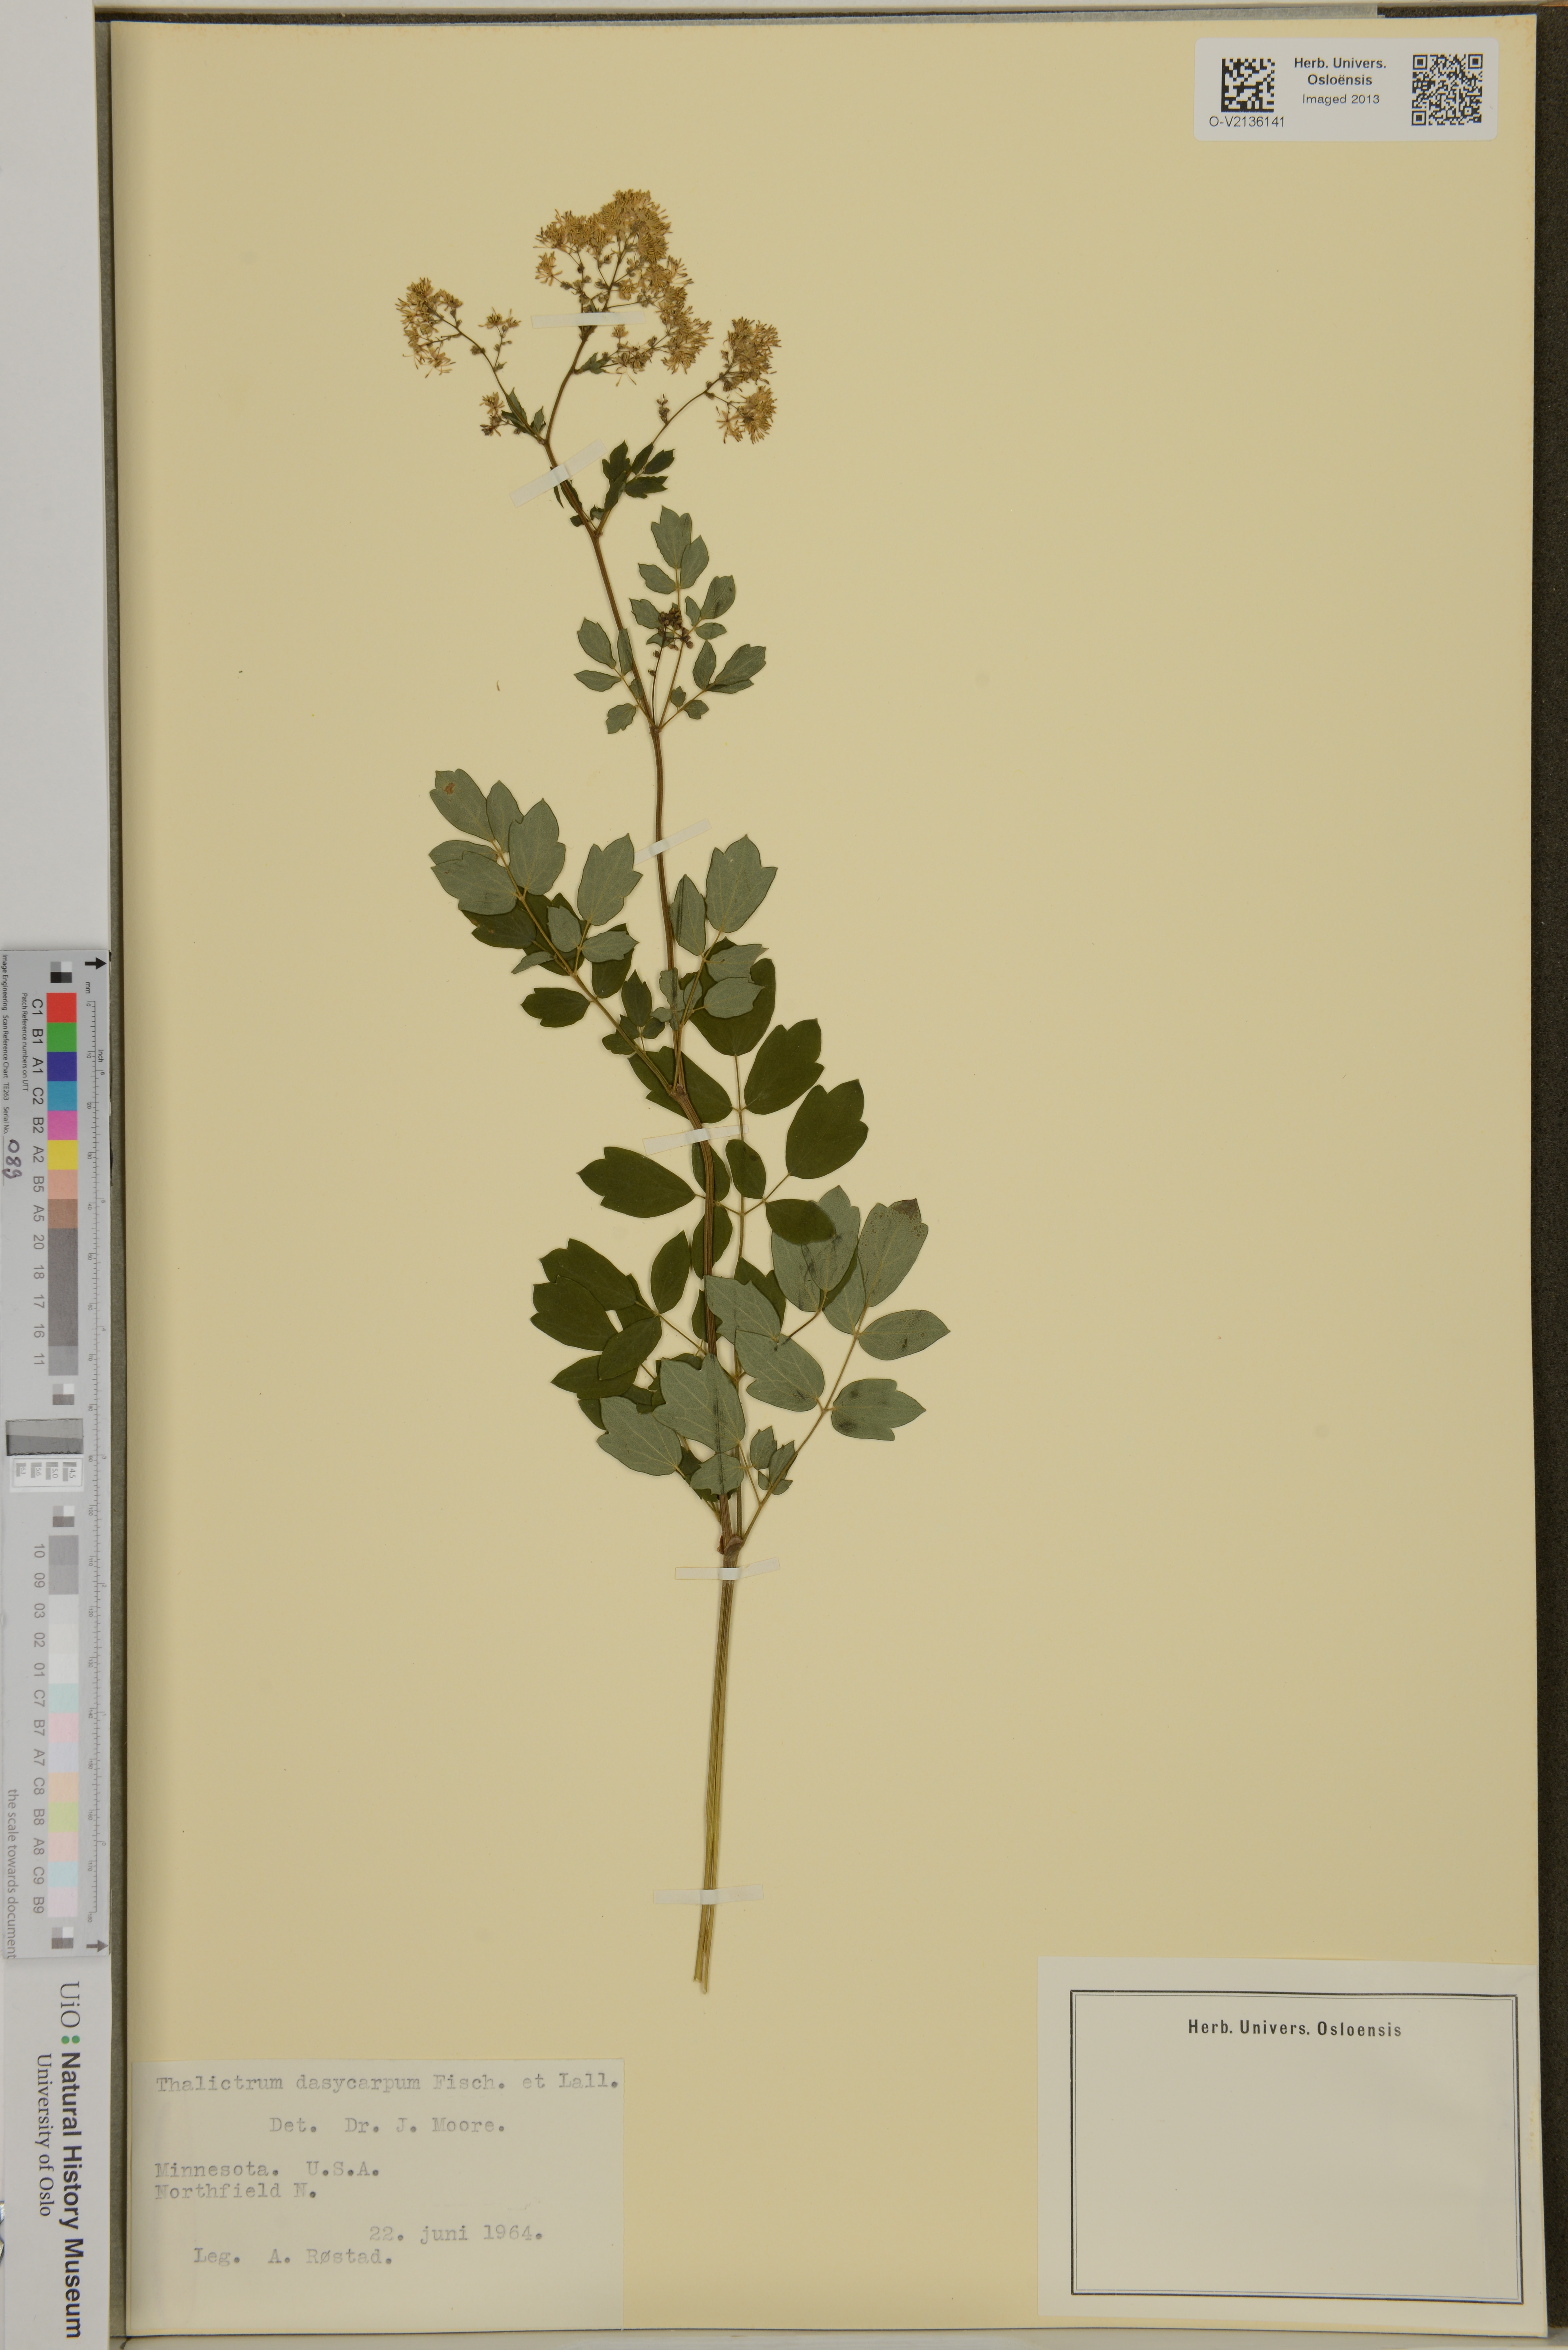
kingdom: Plantae
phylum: Tracheophyta
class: Magnoliopsida
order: Ranunculales
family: Ranunculaceae
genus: Thalictrum
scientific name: Thalictrum dasycarpum
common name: Purple meadow-rue
